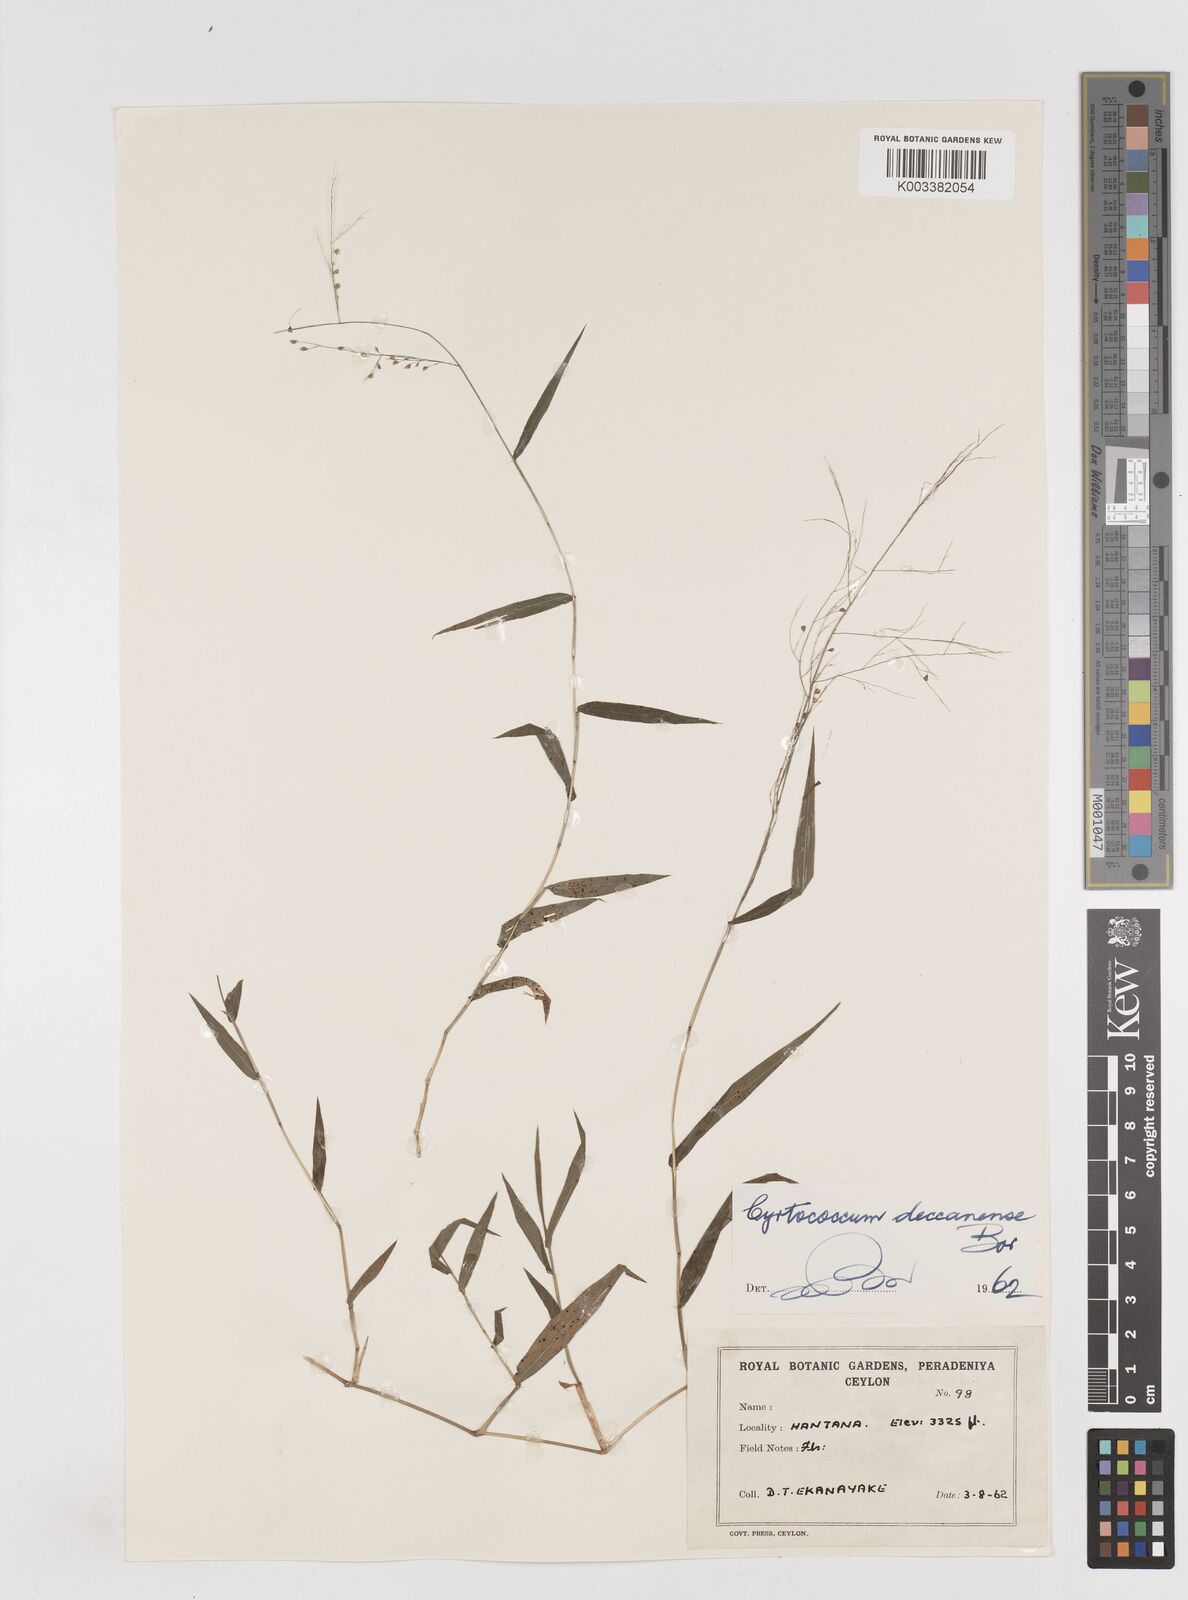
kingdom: Plantae
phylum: Tracheophyta
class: Liliopsida
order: Poales
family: Poaceae
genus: Cyrtococcum
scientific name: Cyrtococcum deccanense
